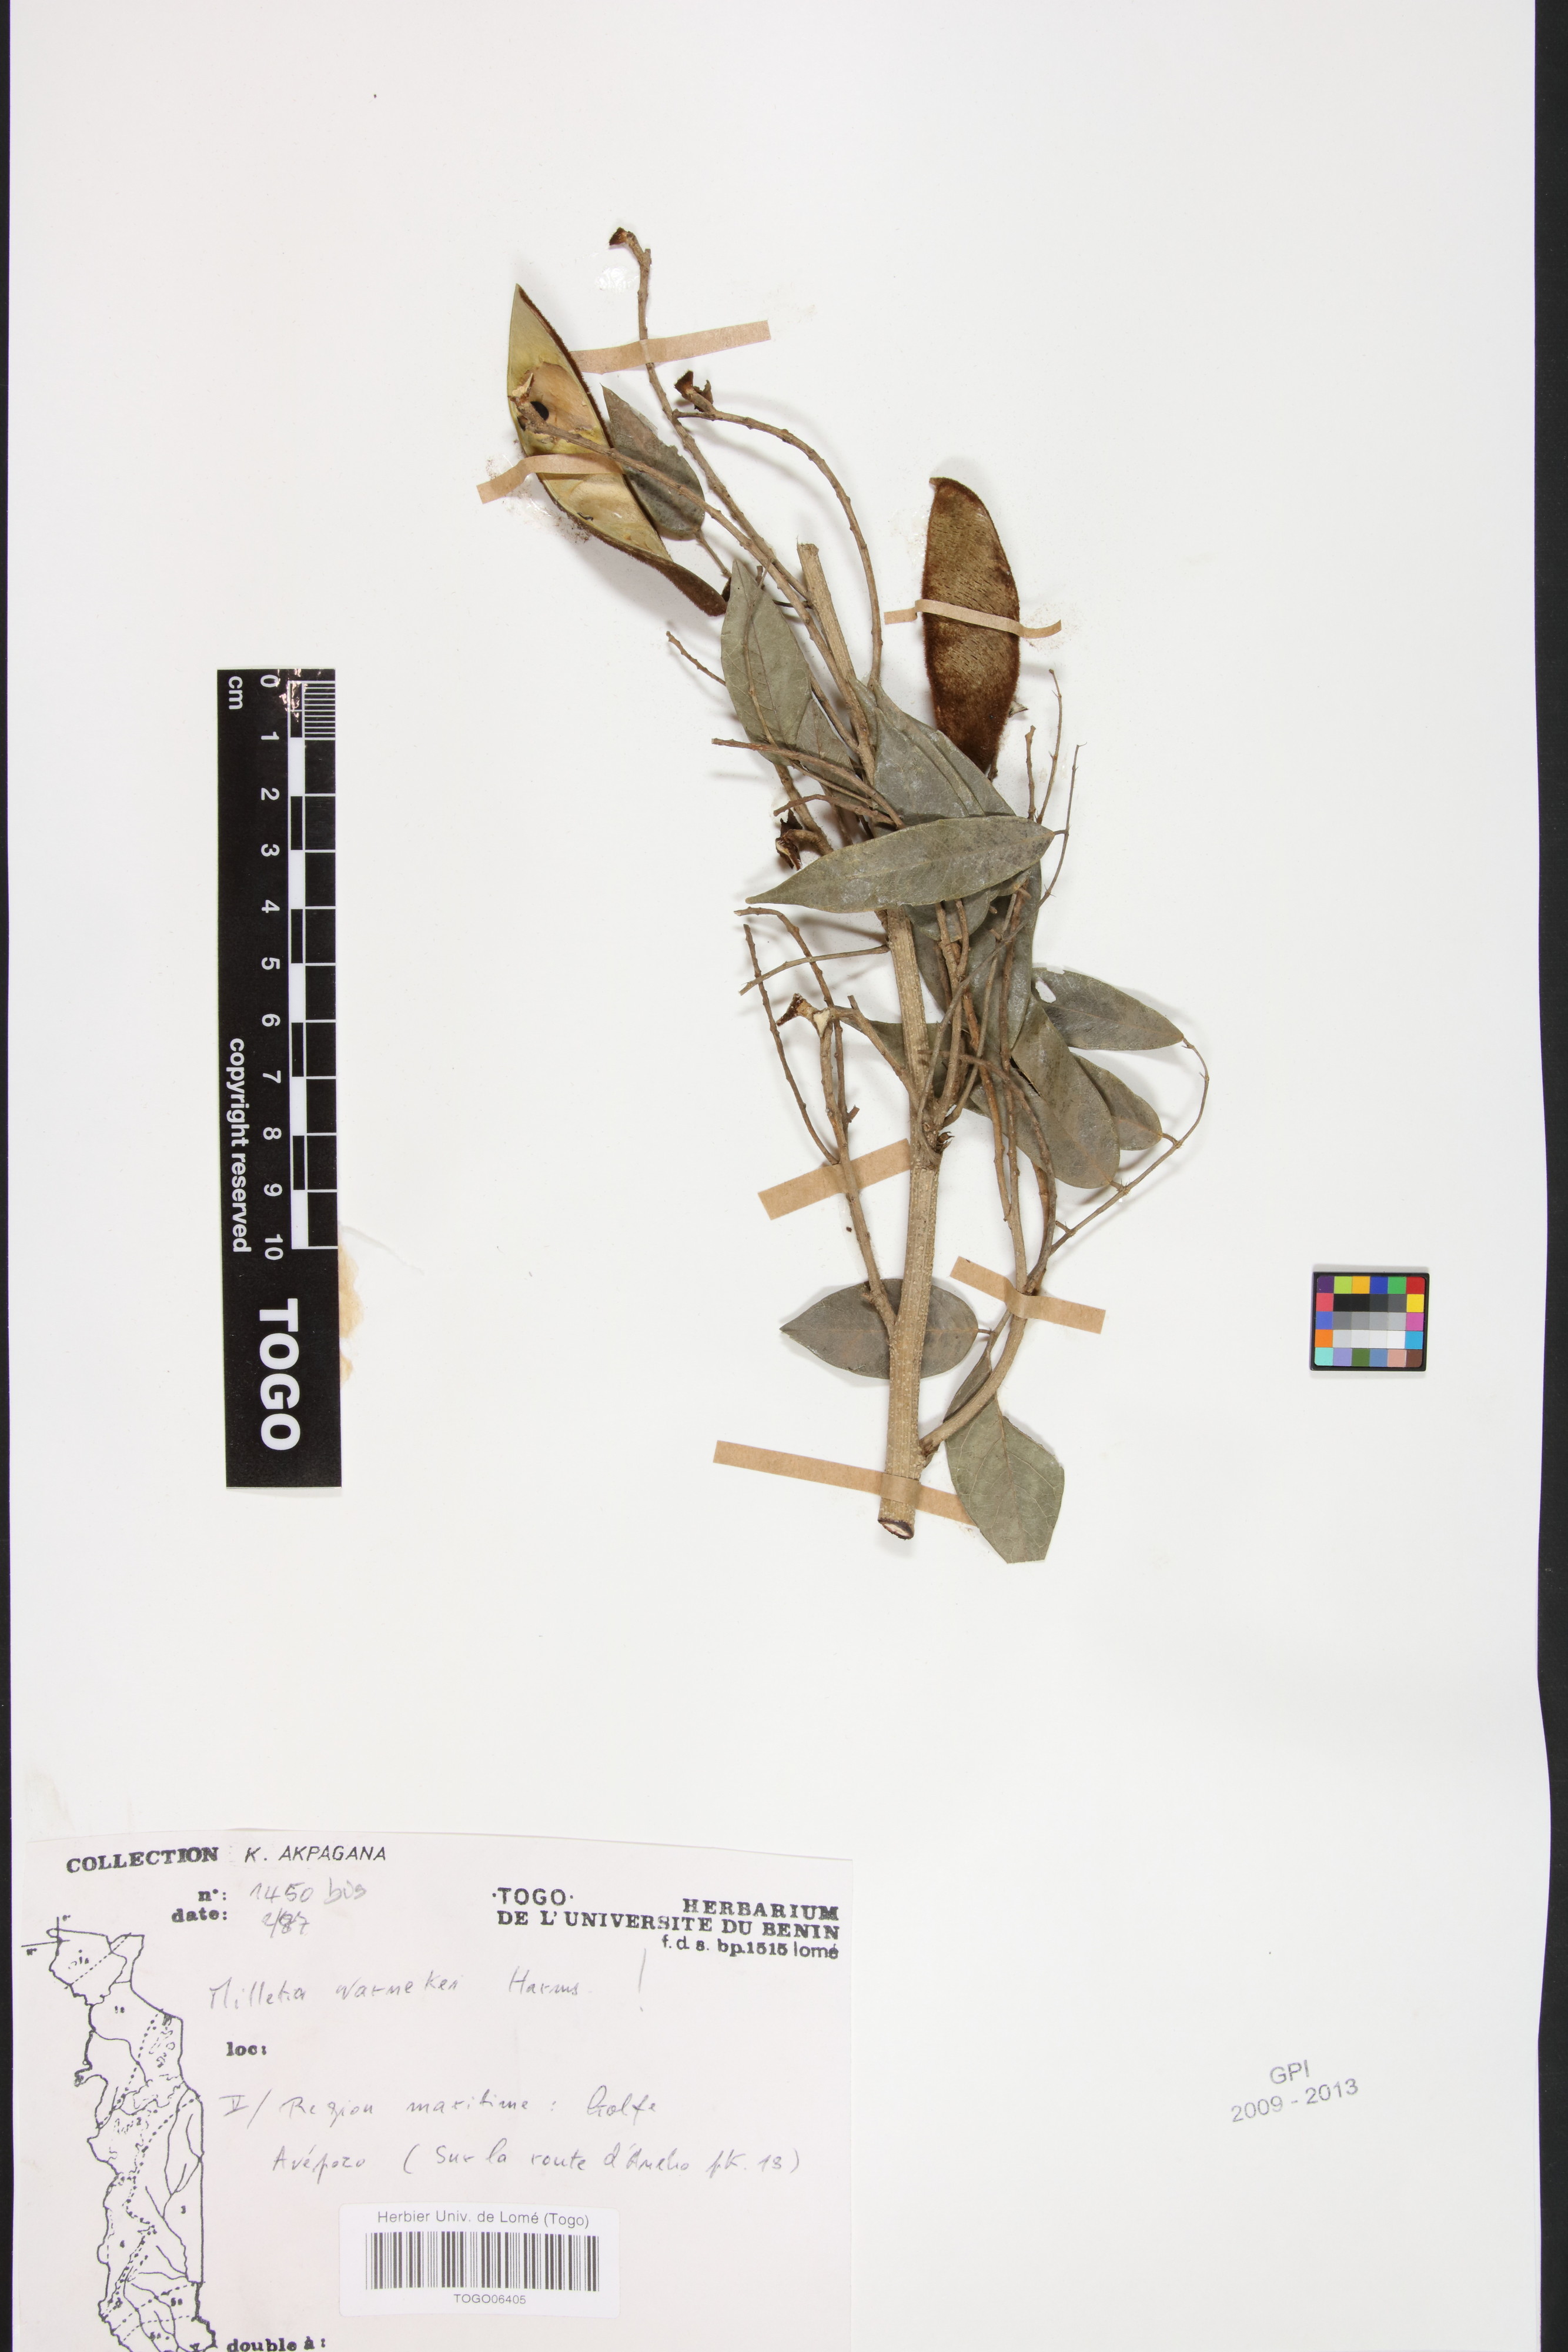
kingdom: Plantae
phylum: Tracheophyta
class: Magnoliopsida
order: Fabales
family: Fabaceae
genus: Millettia
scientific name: Millettia warneckei
